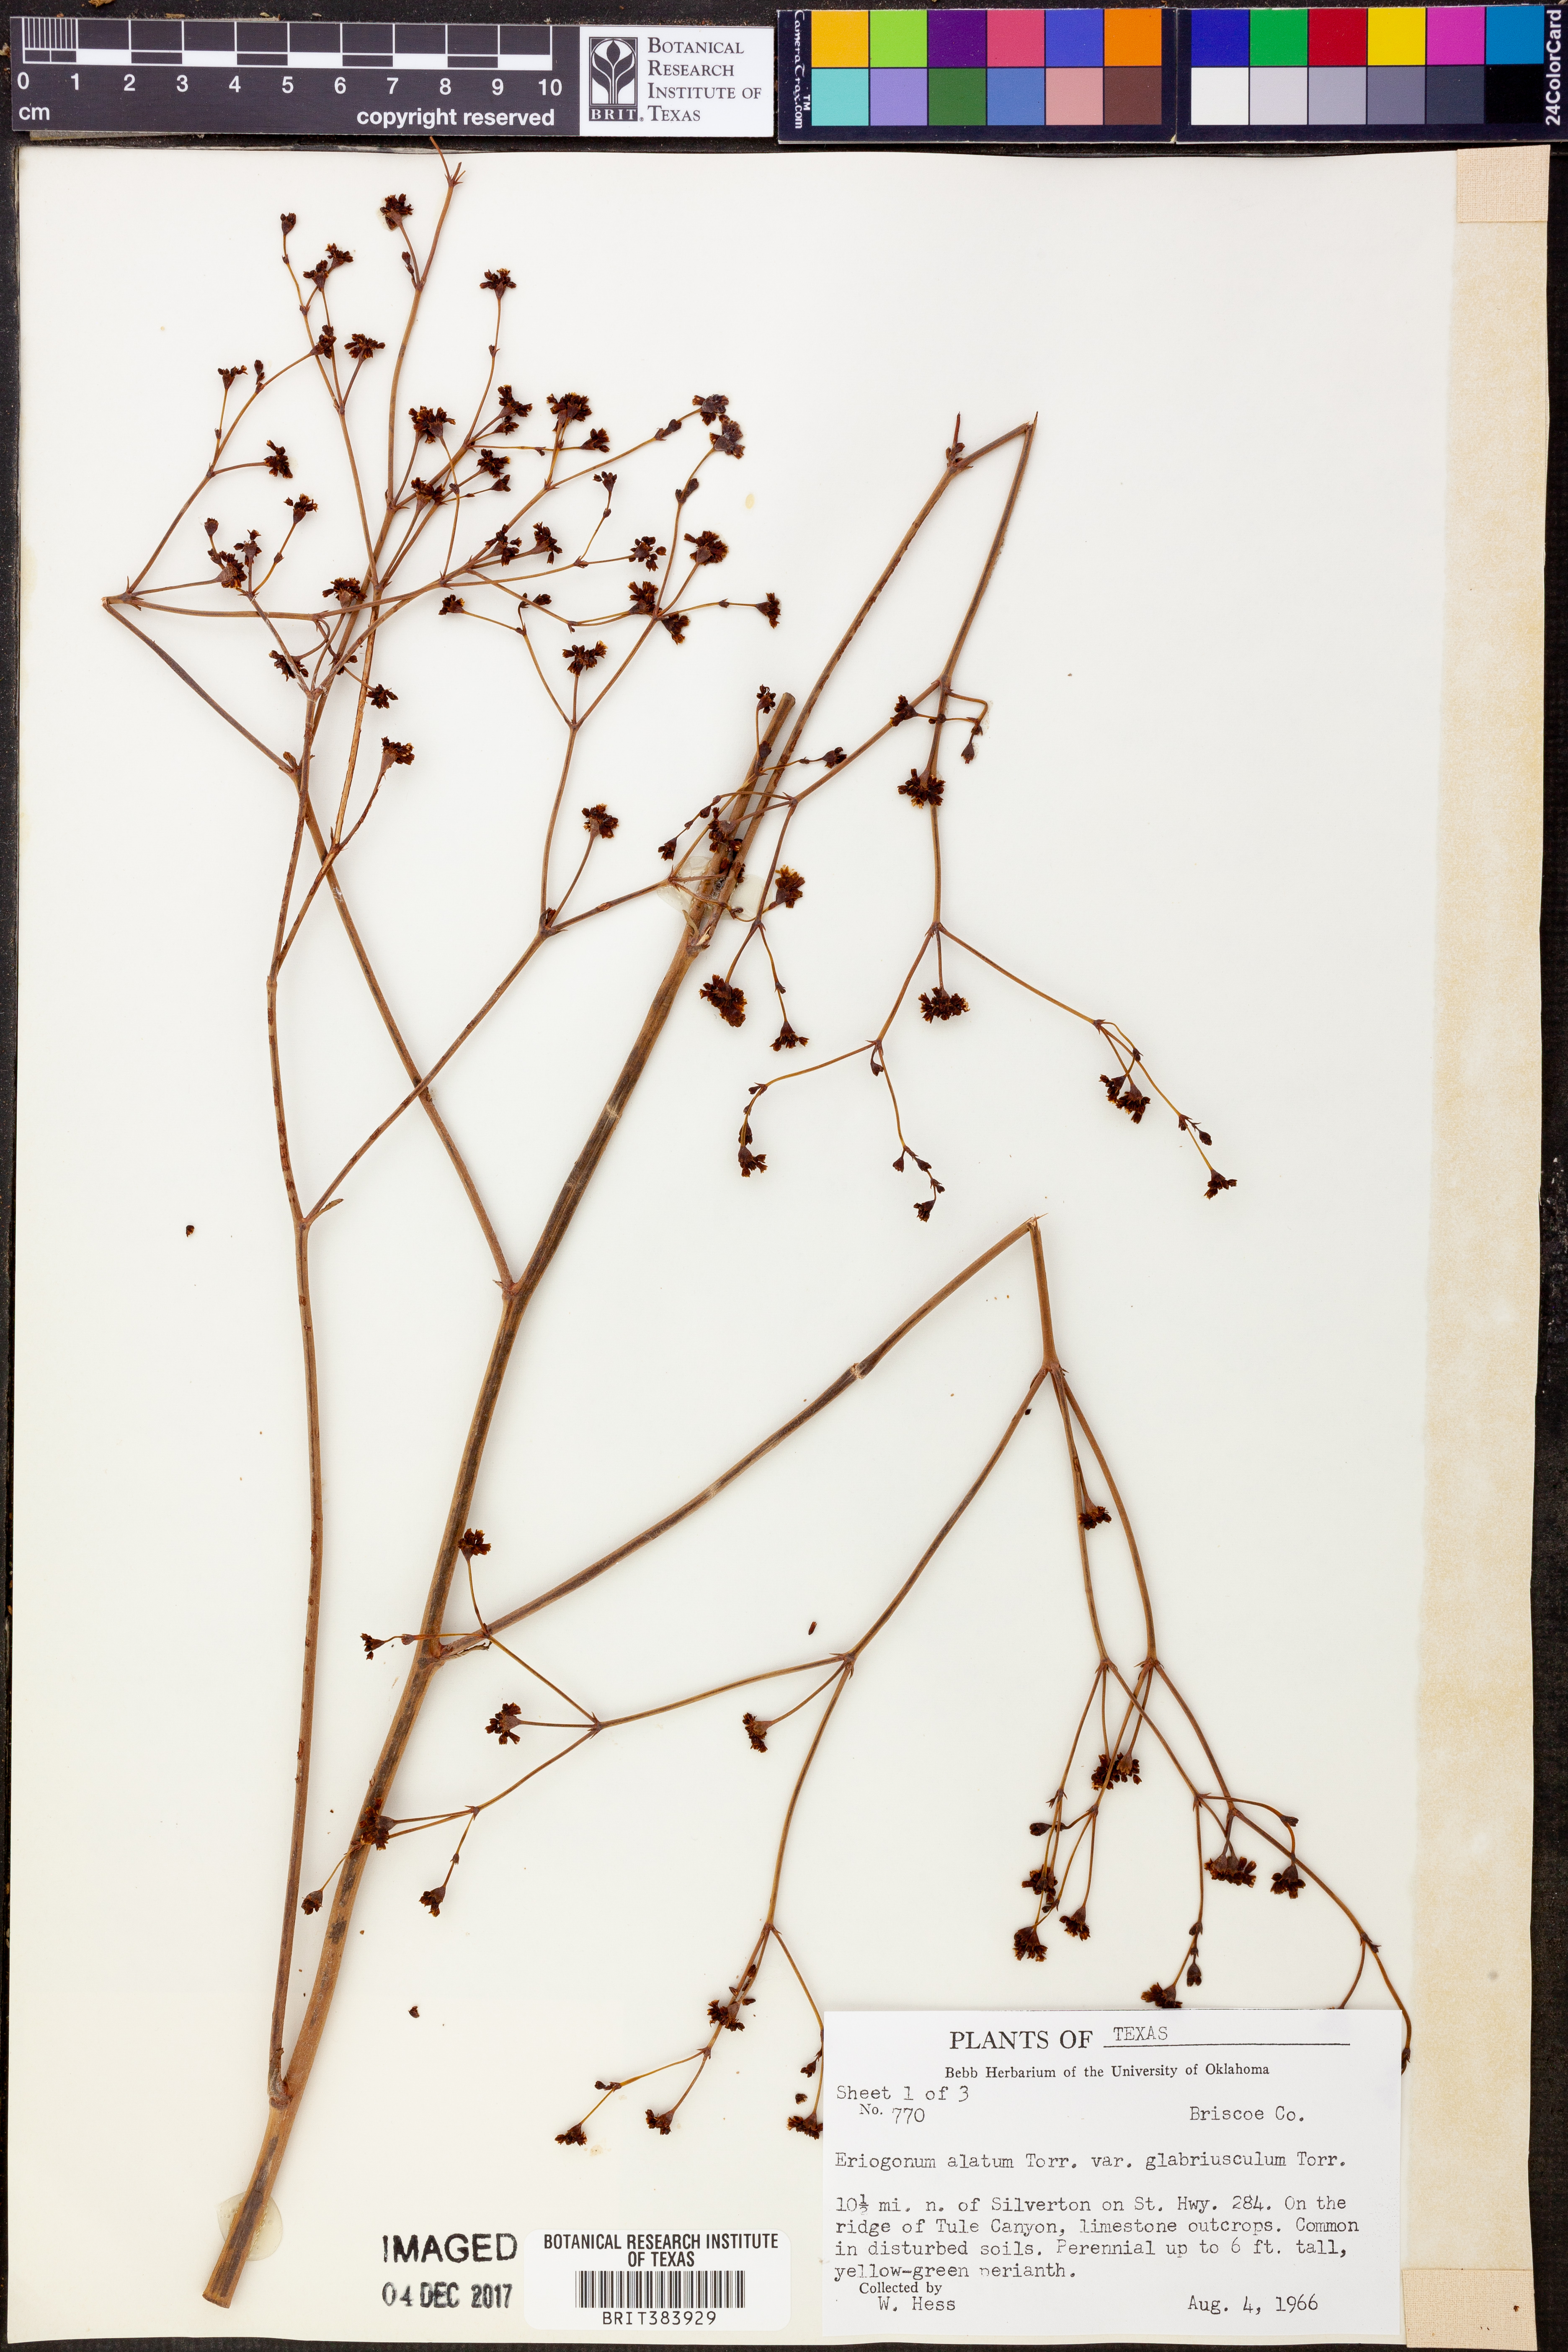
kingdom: Plantae
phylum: Tracheophyta
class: Magnoliopsida
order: Caryophyllales
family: Polygonaceae
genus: Eriogonum
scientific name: Eriogonum alatum
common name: Winged eriogonum
